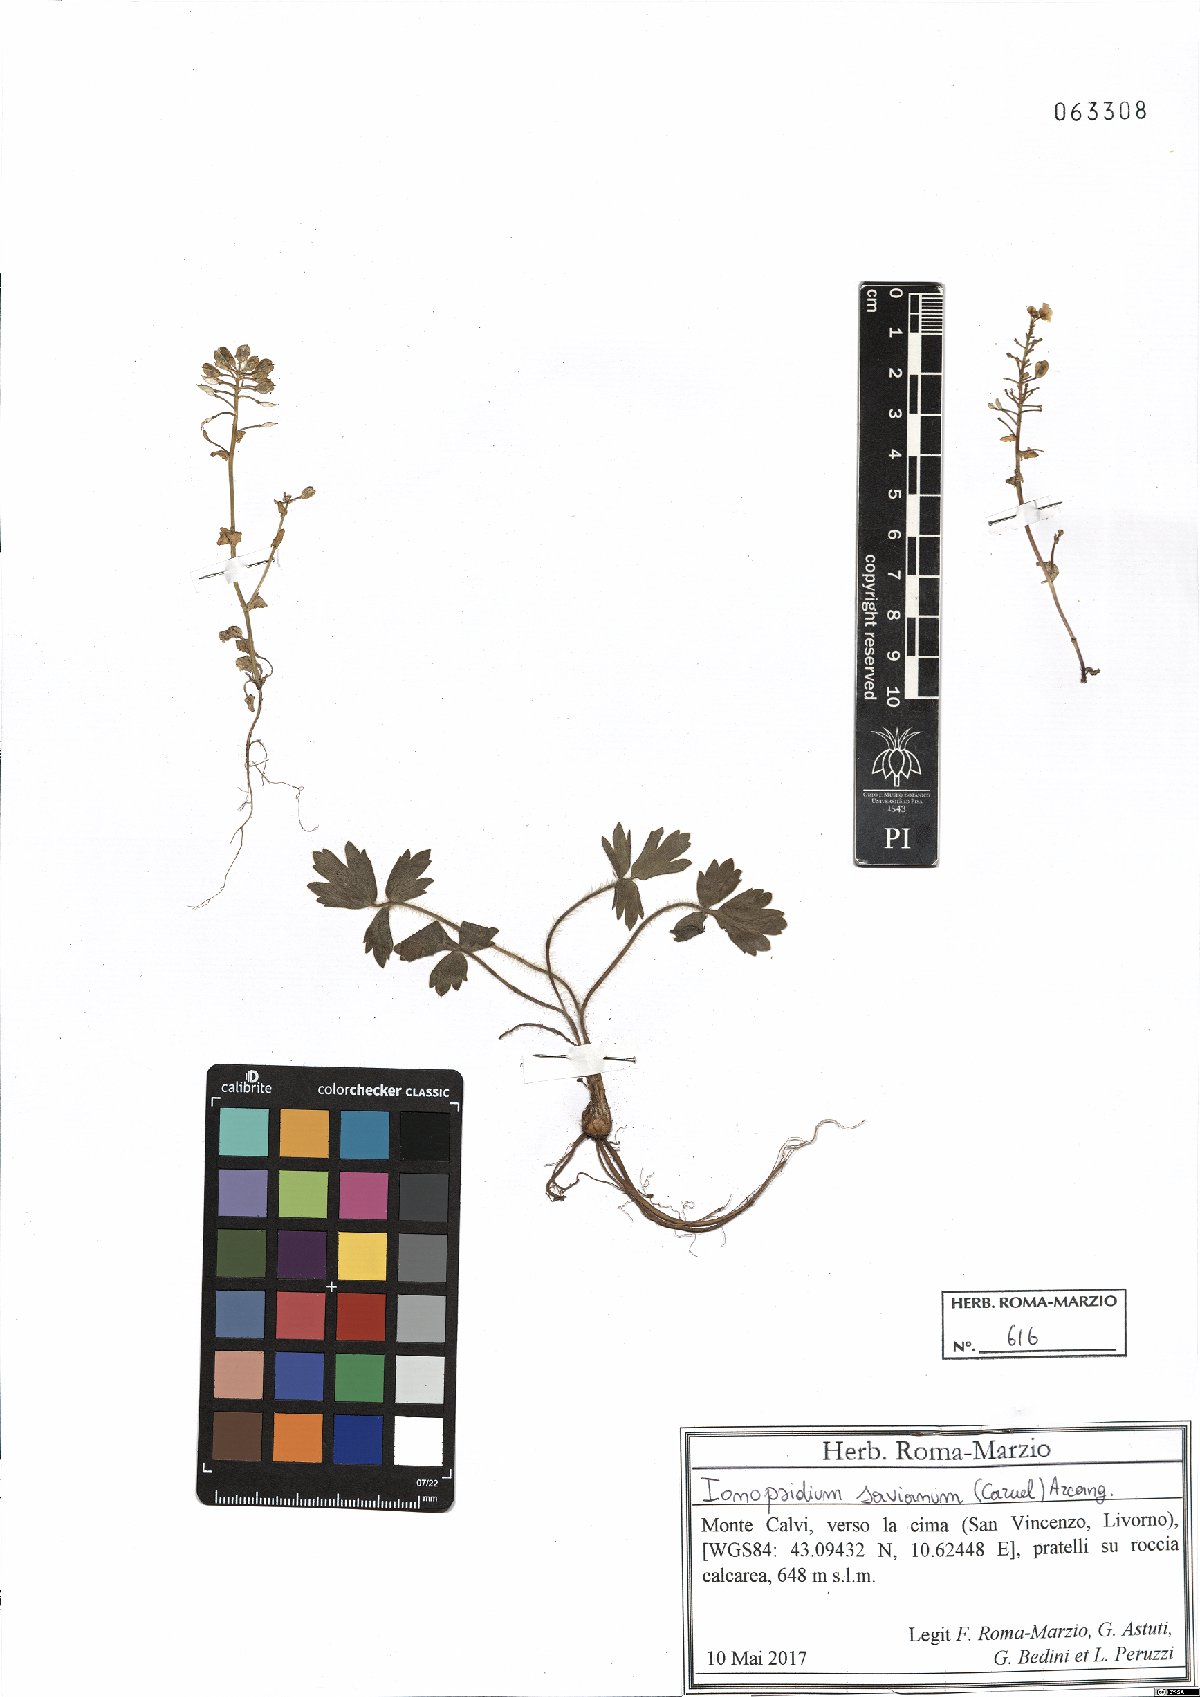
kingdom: Plantae
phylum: Tracheophyta
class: Magnoliopsida
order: Brassicales
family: Brassicaceae
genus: Ionopsidium
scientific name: Ionopsidium savianum
